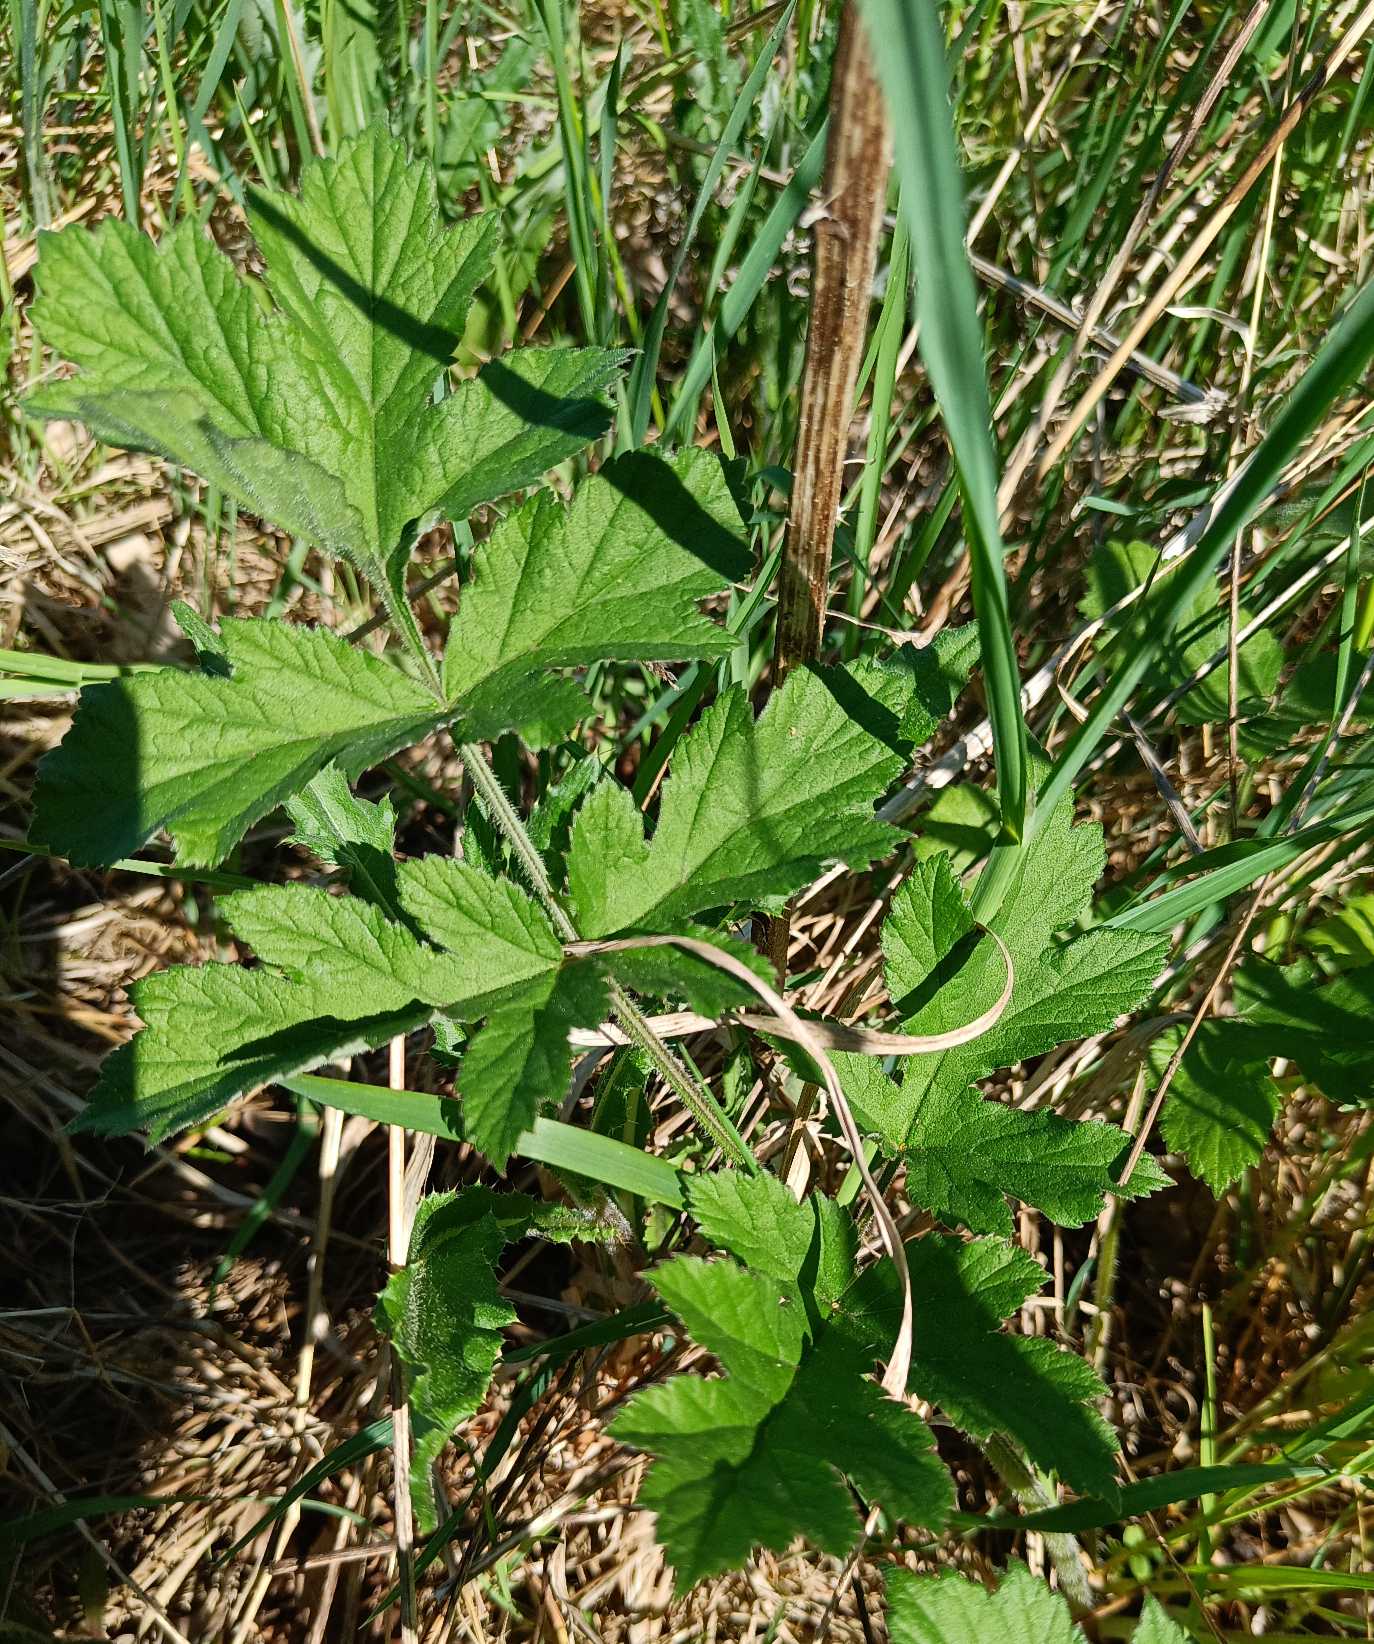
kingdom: Plantae
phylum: Tracheophyta
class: Magnoliopsida
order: Apiales
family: Apiaceae
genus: Heracleum
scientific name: Heracleum sphondylium
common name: Almindelig bjørneklo
